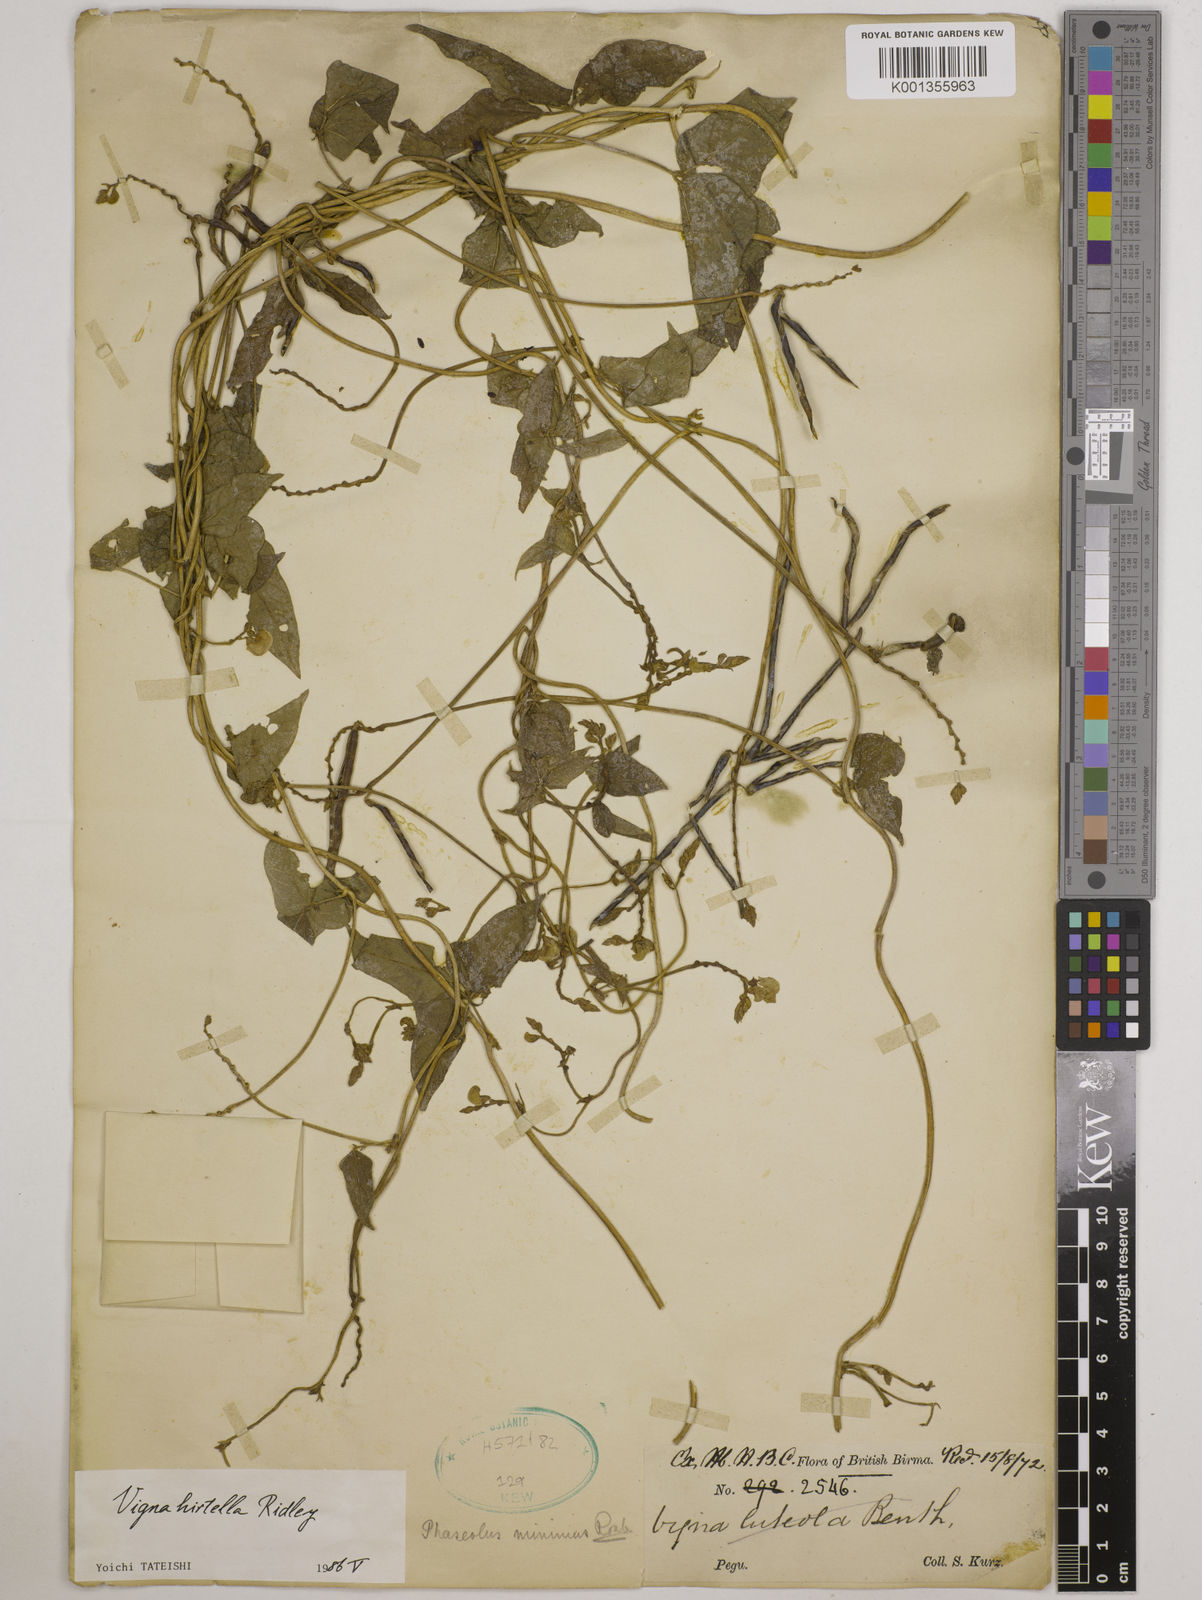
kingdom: Plantae
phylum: Tracheophyta
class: Magnoliopsida
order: Fabales
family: Fabaceae
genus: Vigna
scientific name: Vigna hirtella
